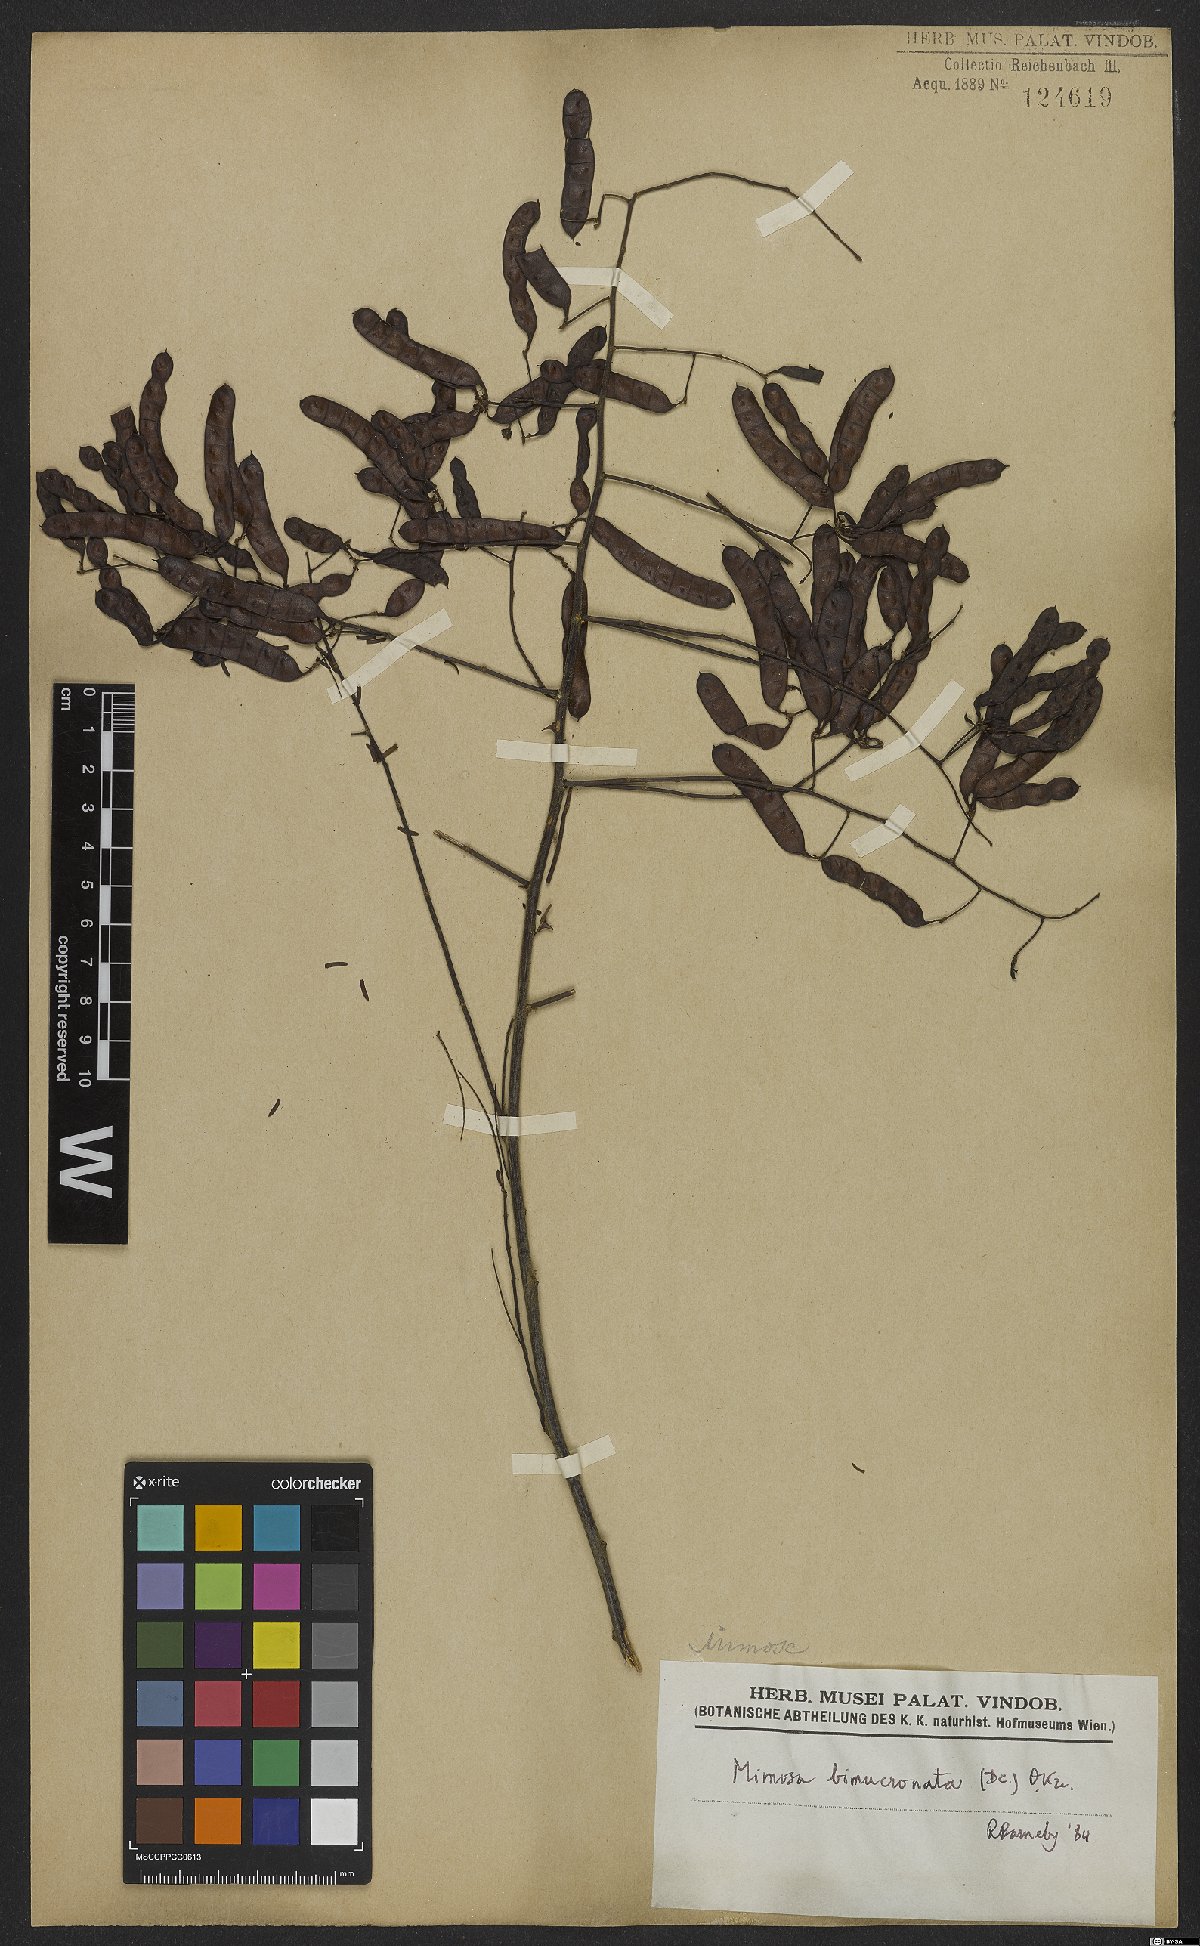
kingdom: Plantae
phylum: Tracheophyta
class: Magnoliopsida
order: Fabales
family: Fabaceae
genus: Mimosa
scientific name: Mimosa bimucronata
